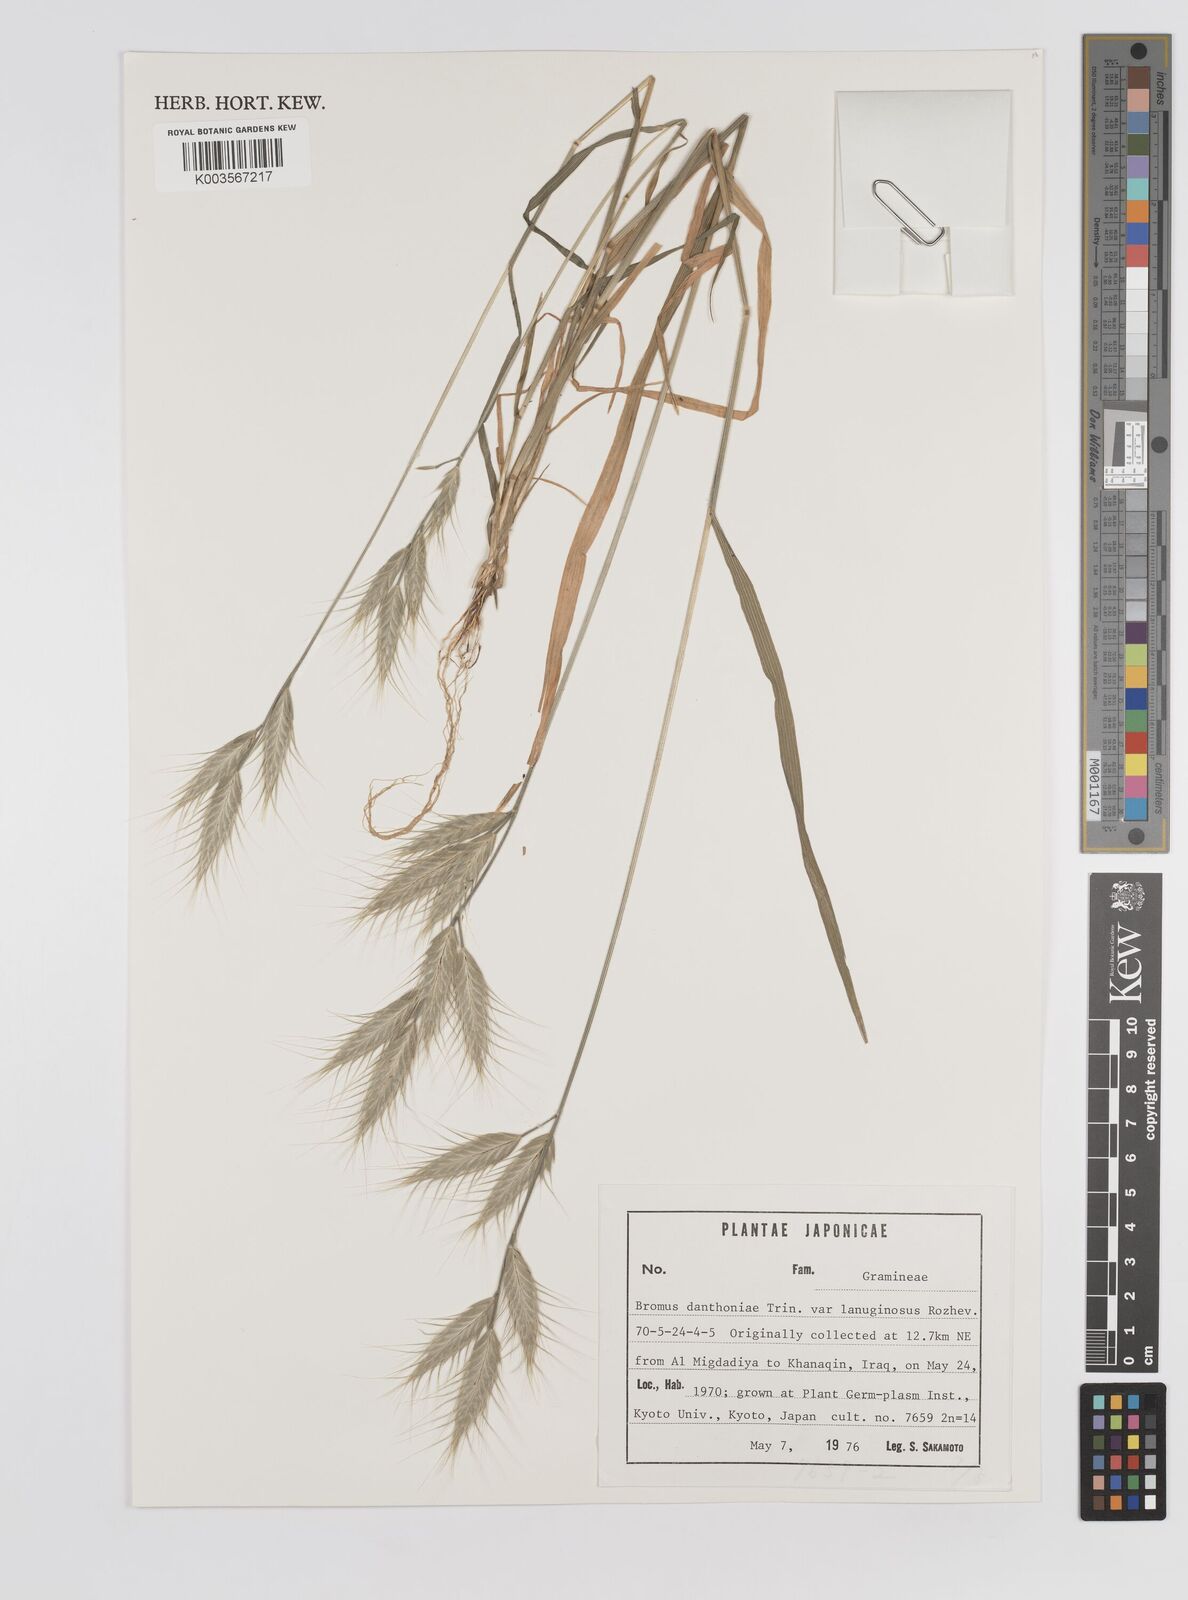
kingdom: Plantae
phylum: Tracheophyta
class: Liliopsida
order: Poales
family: Poaceae
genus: Bromus
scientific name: Bromus danthoniae
